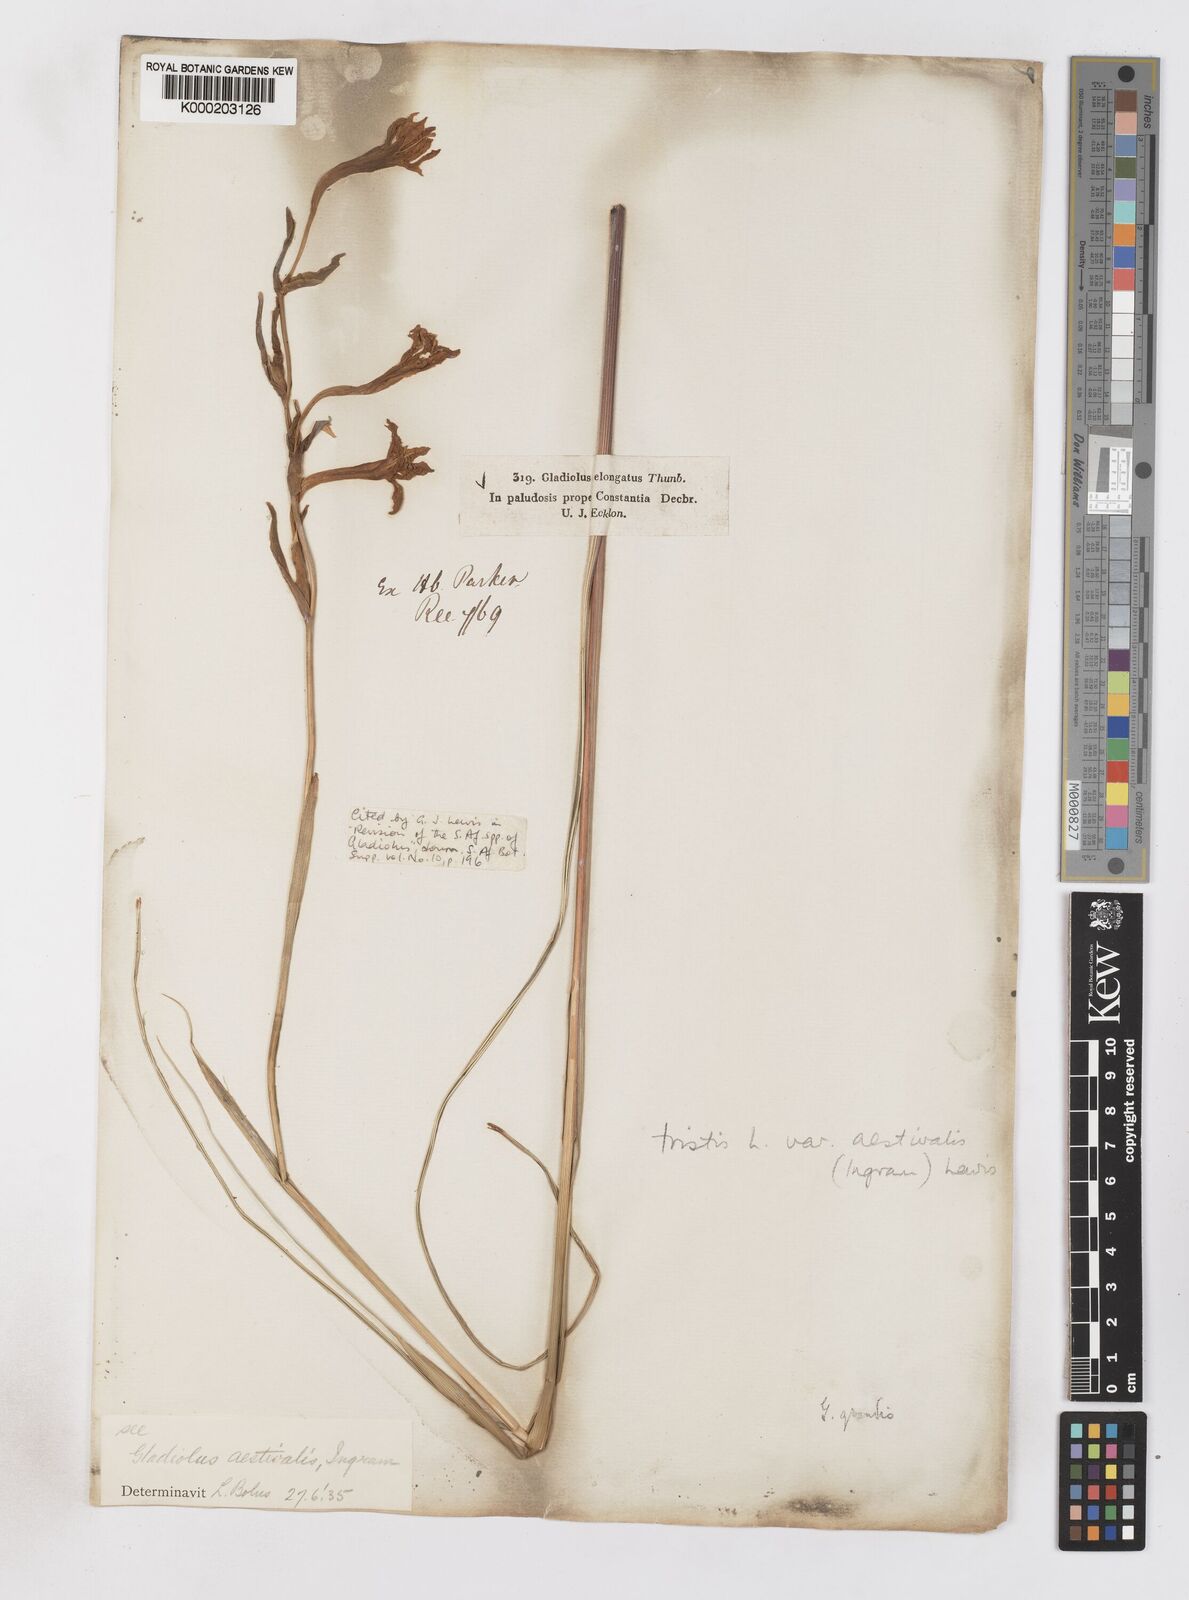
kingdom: Plantae
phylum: Tracheophyta
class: Liliopsida
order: Asparagales
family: Iridaceae
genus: Gladiolus
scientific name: Gladiolus tristis
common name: Ever-flowering gladiolus
